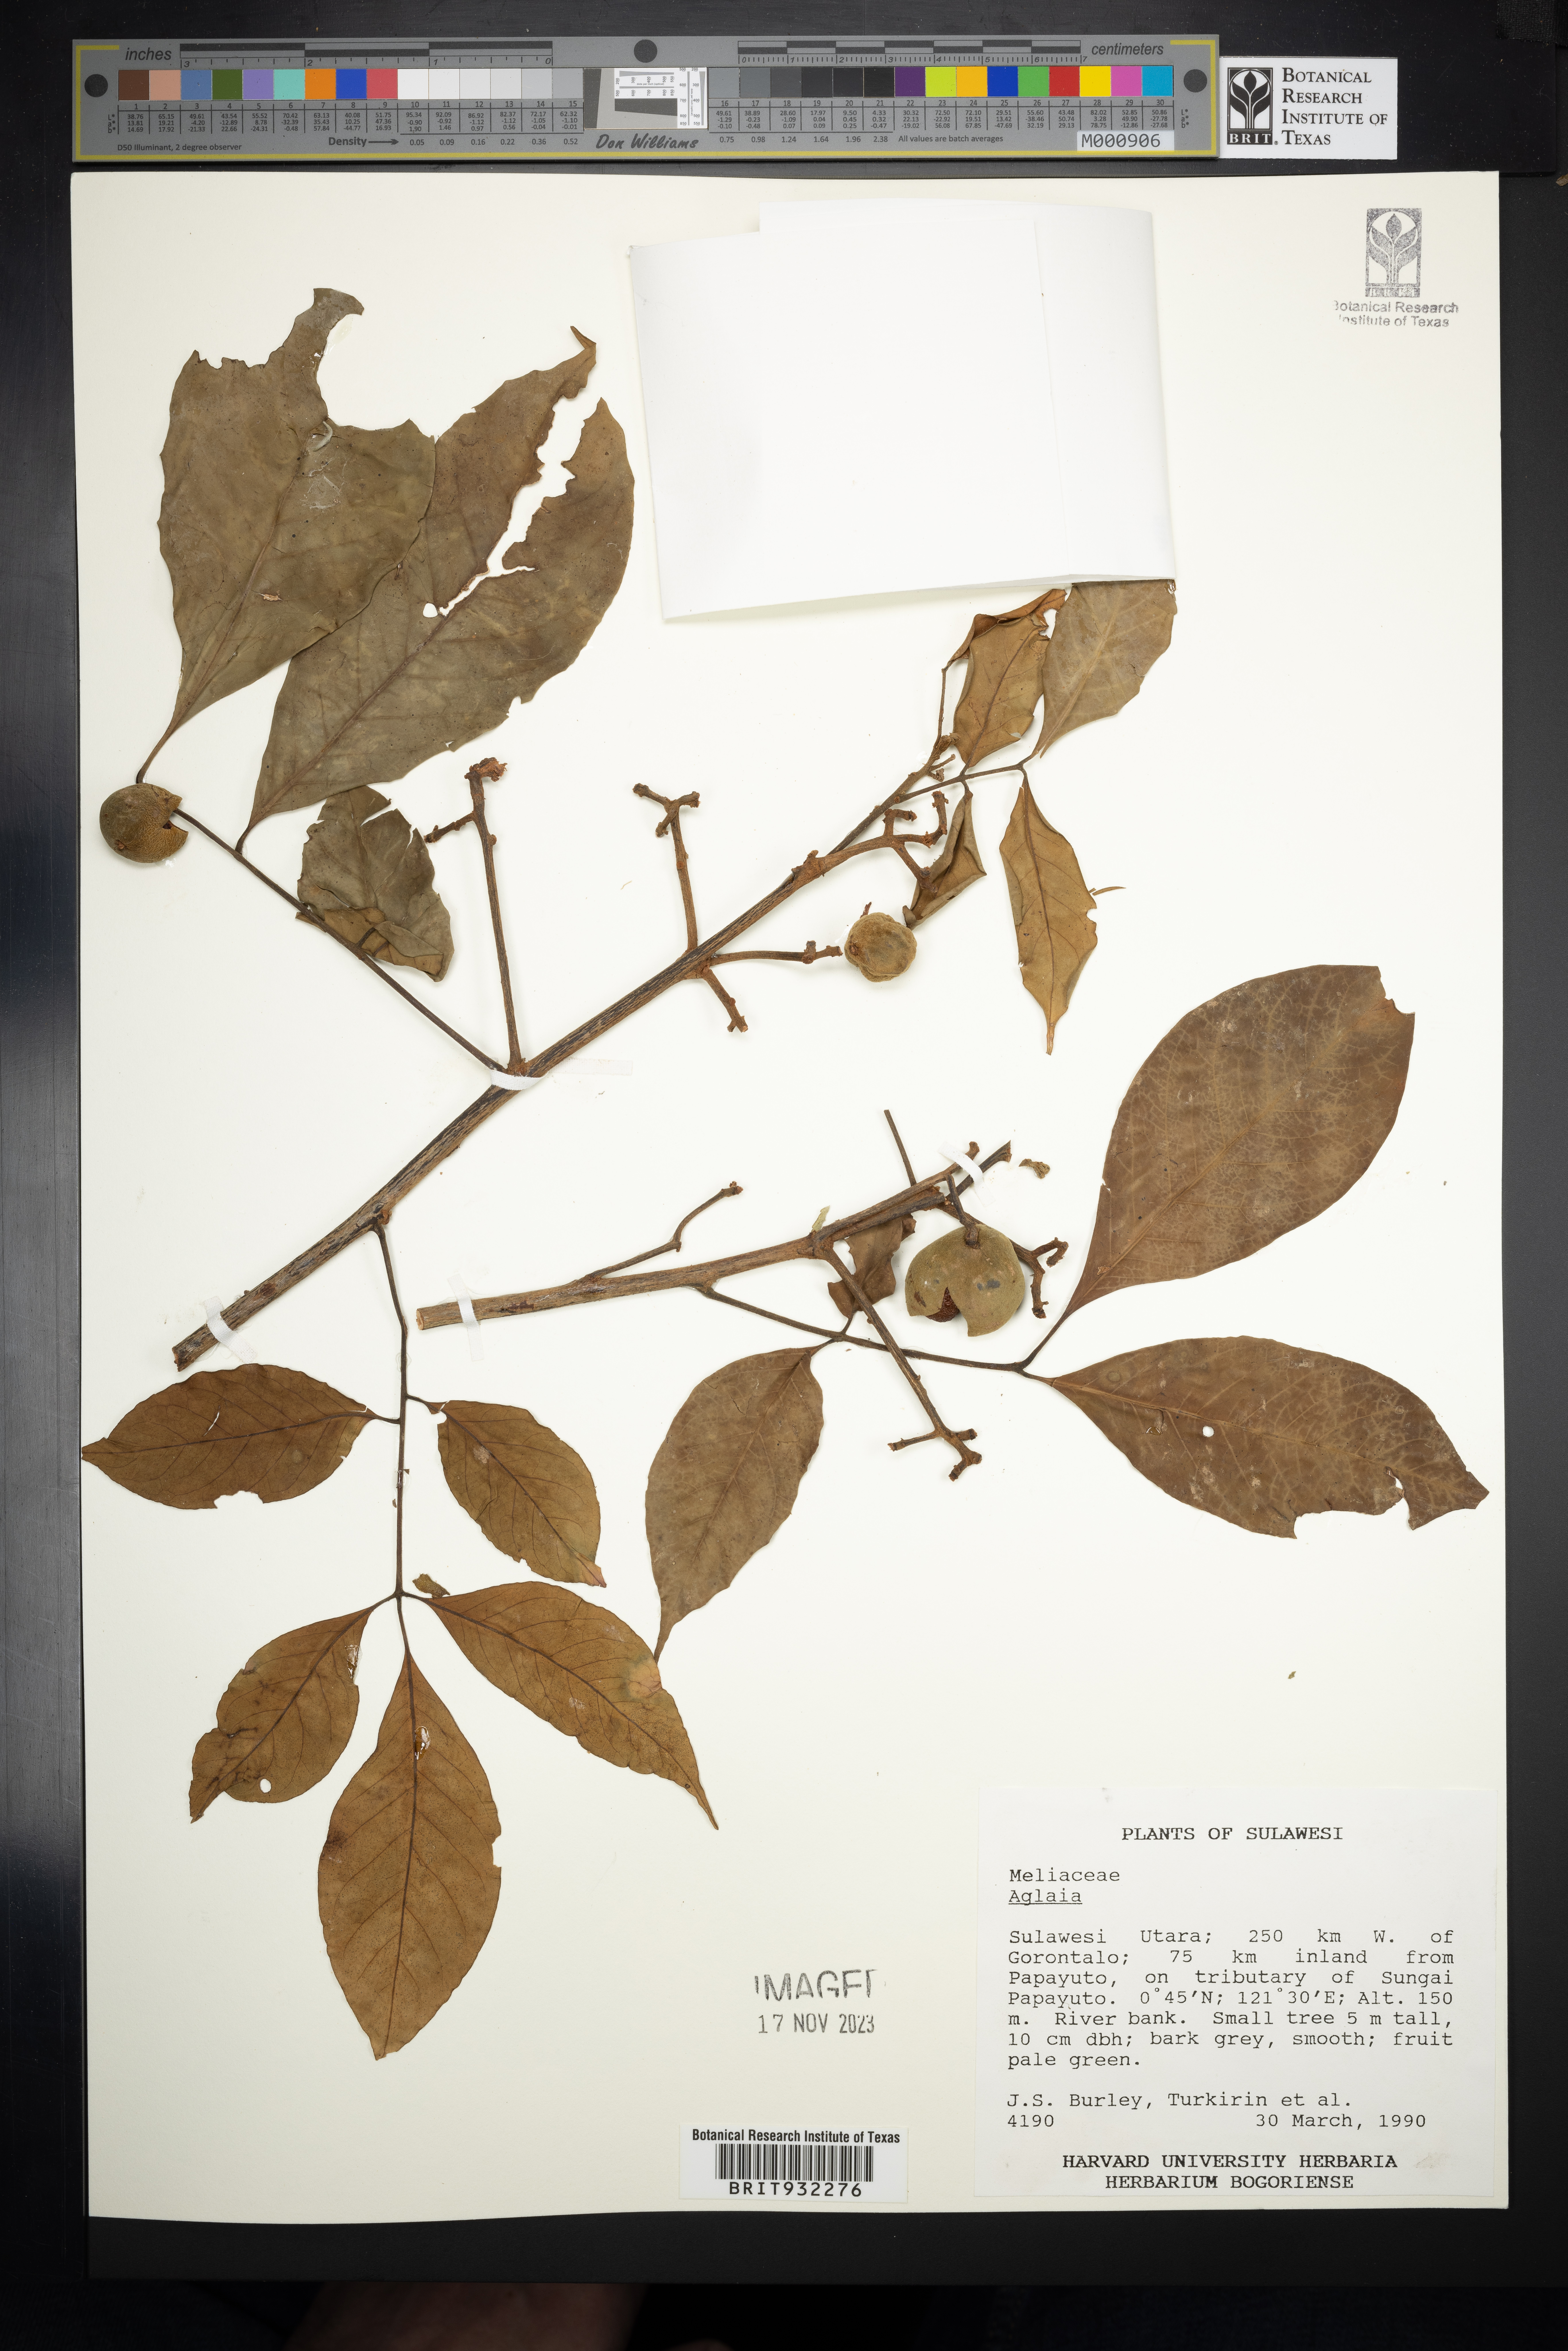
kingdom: Plantae
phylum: Tracheophyta
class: Magnoliopsida
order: Sapindales
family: Meliaceae
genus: Aglaia
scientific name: Aglaia
